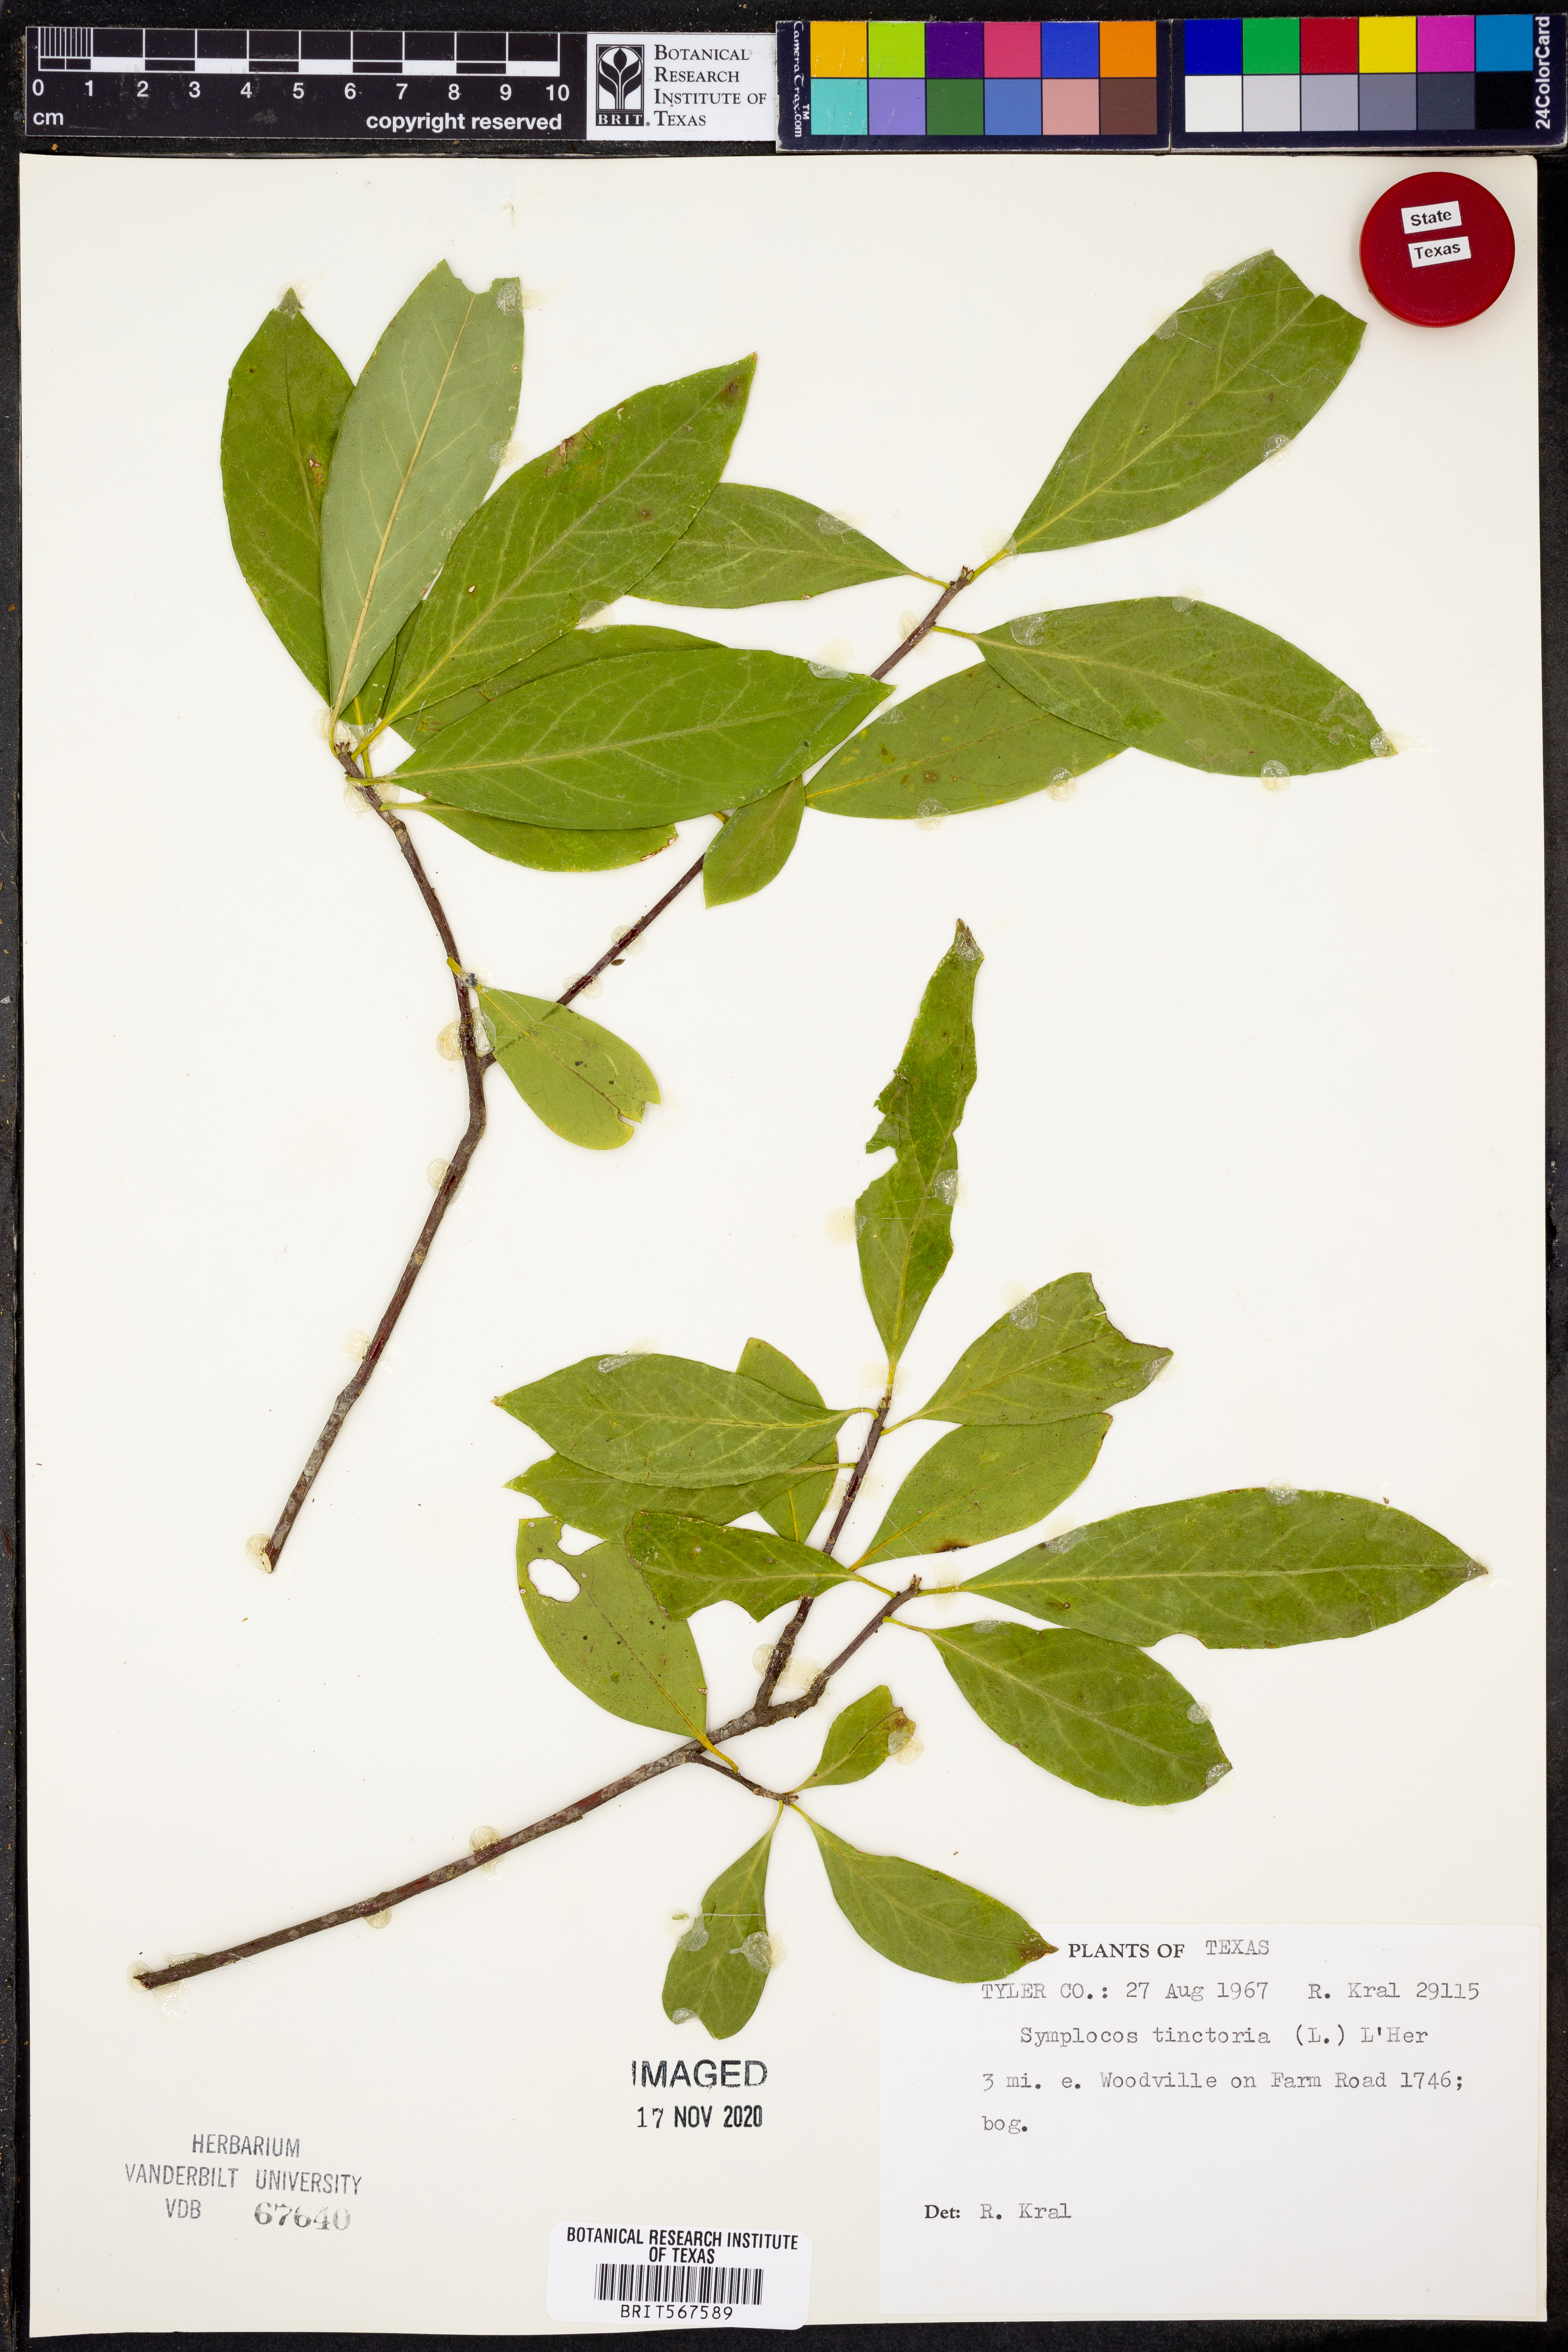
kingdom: Plantae
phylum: Tracheophyta
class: Magnoliopsida
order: Ericales
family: Symplocaceae
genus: Symplocos
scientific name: Symplocos tinctoria
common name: Horse-sugar
